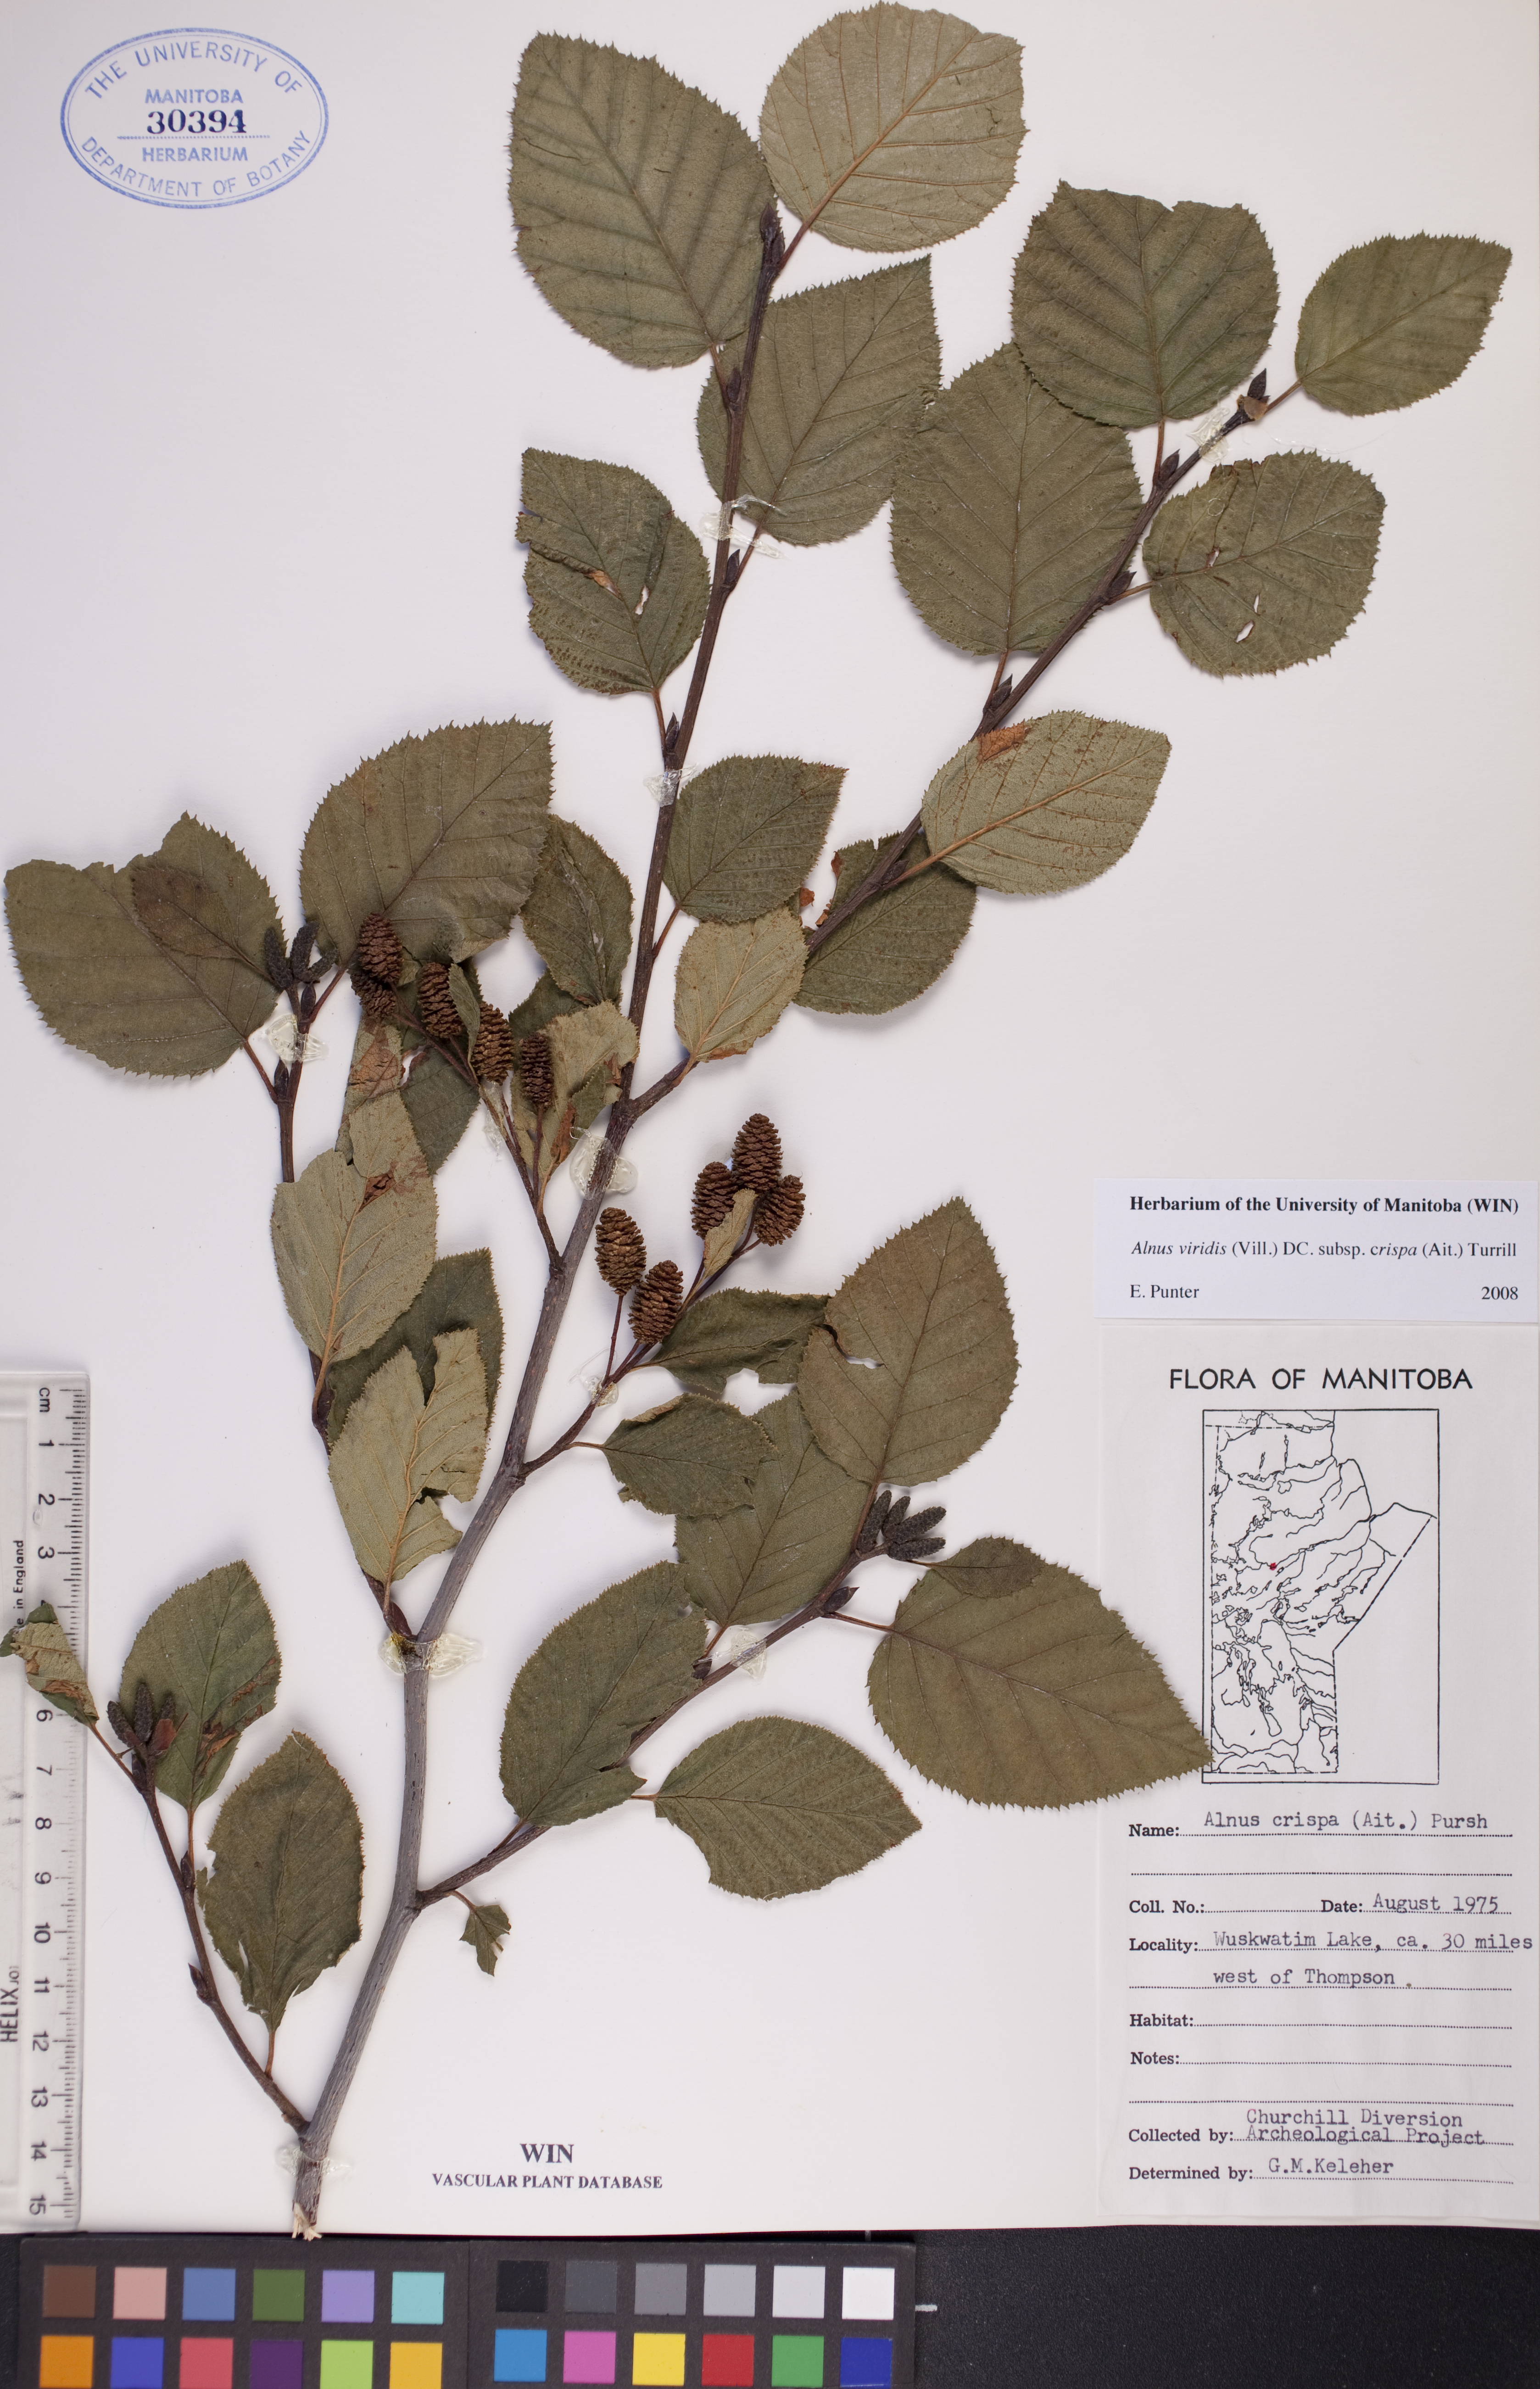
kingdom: Plantae
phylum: Tracheophyta
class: Magnoliopsida
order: Fagales
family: Betulaceae
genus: Alnus
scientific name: Alnus alnobetula
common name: Green alder
